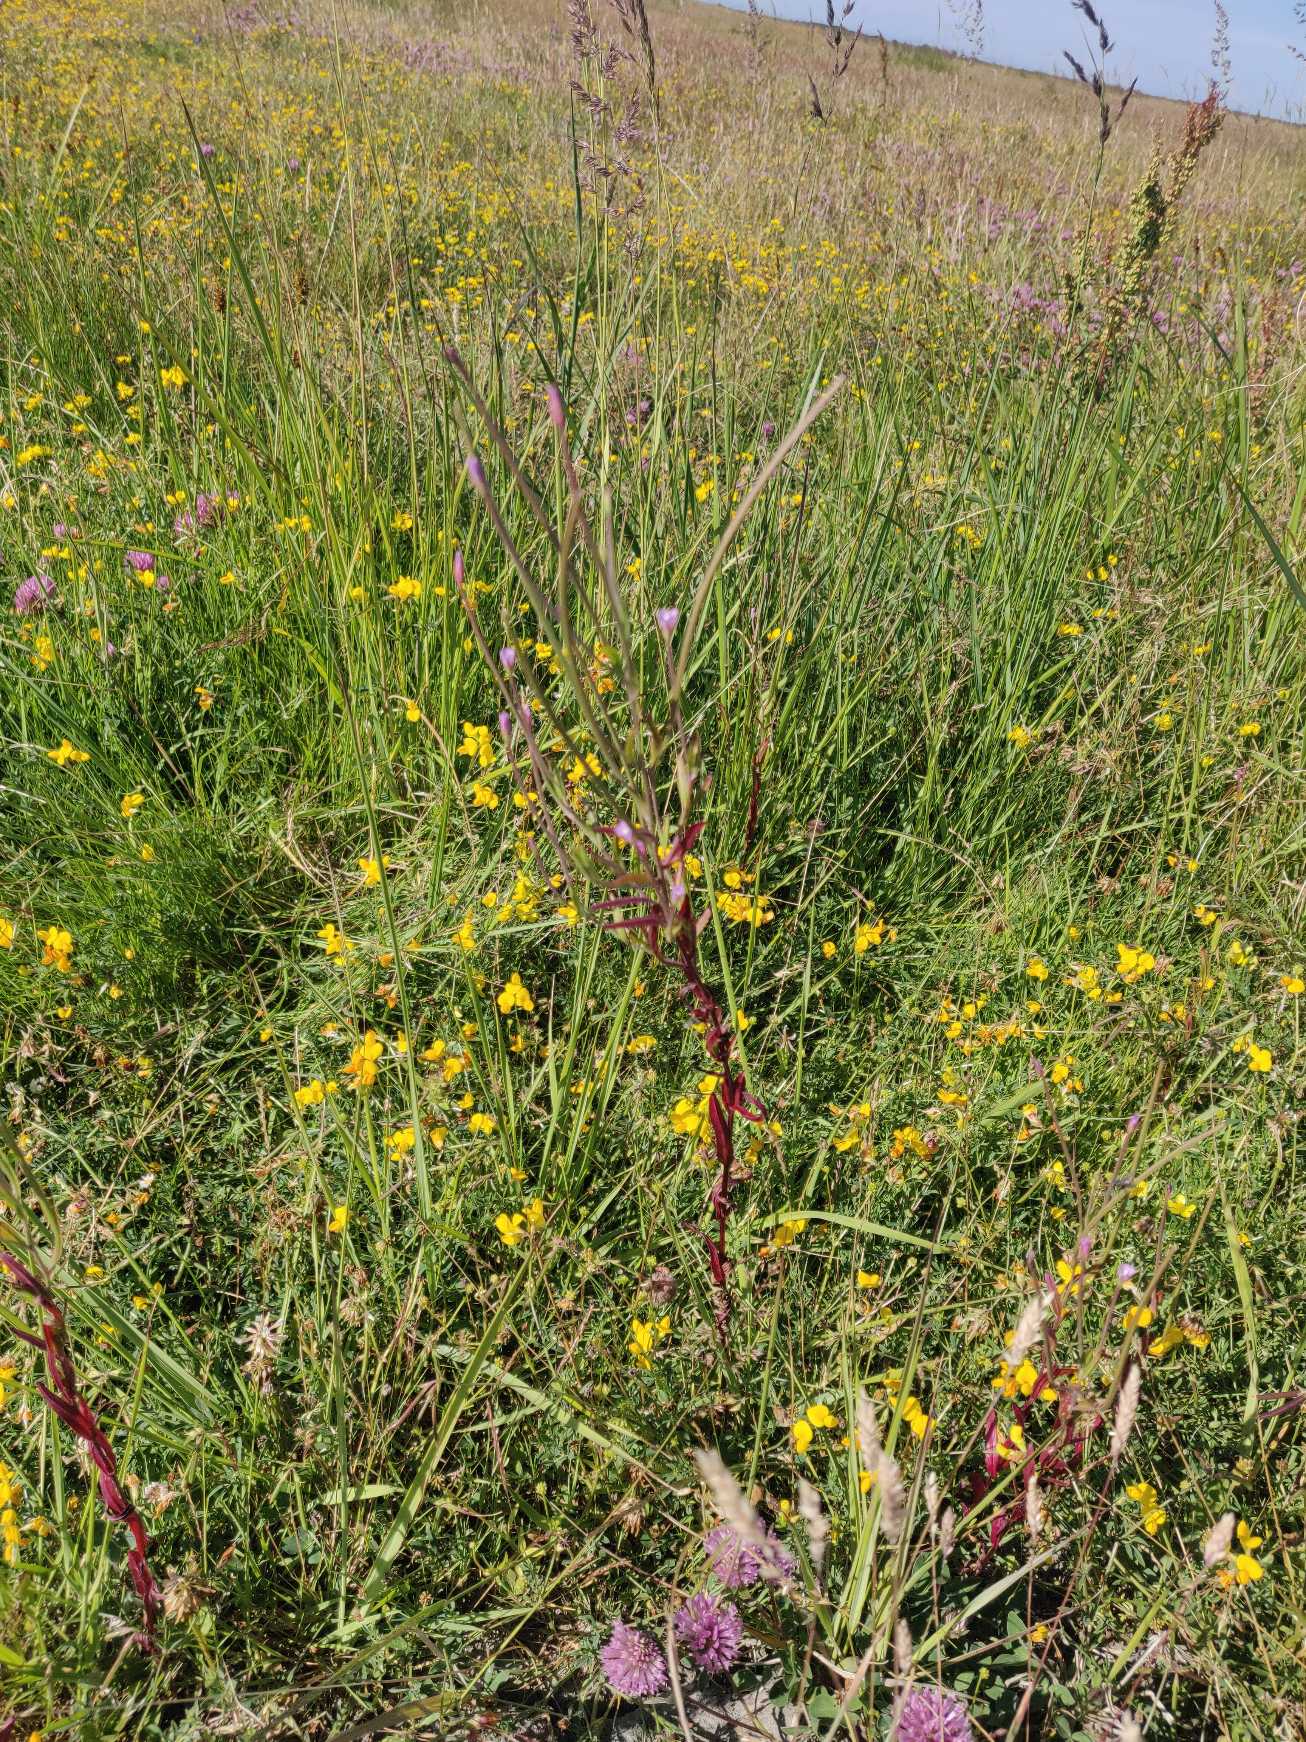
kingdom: Plantae
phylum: Tracheophyta
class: Magnoliopsida
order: Myrtales
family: Onagraceae
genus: Epilobium
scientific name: Epilobium obscurum
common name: Ris-dueurt
